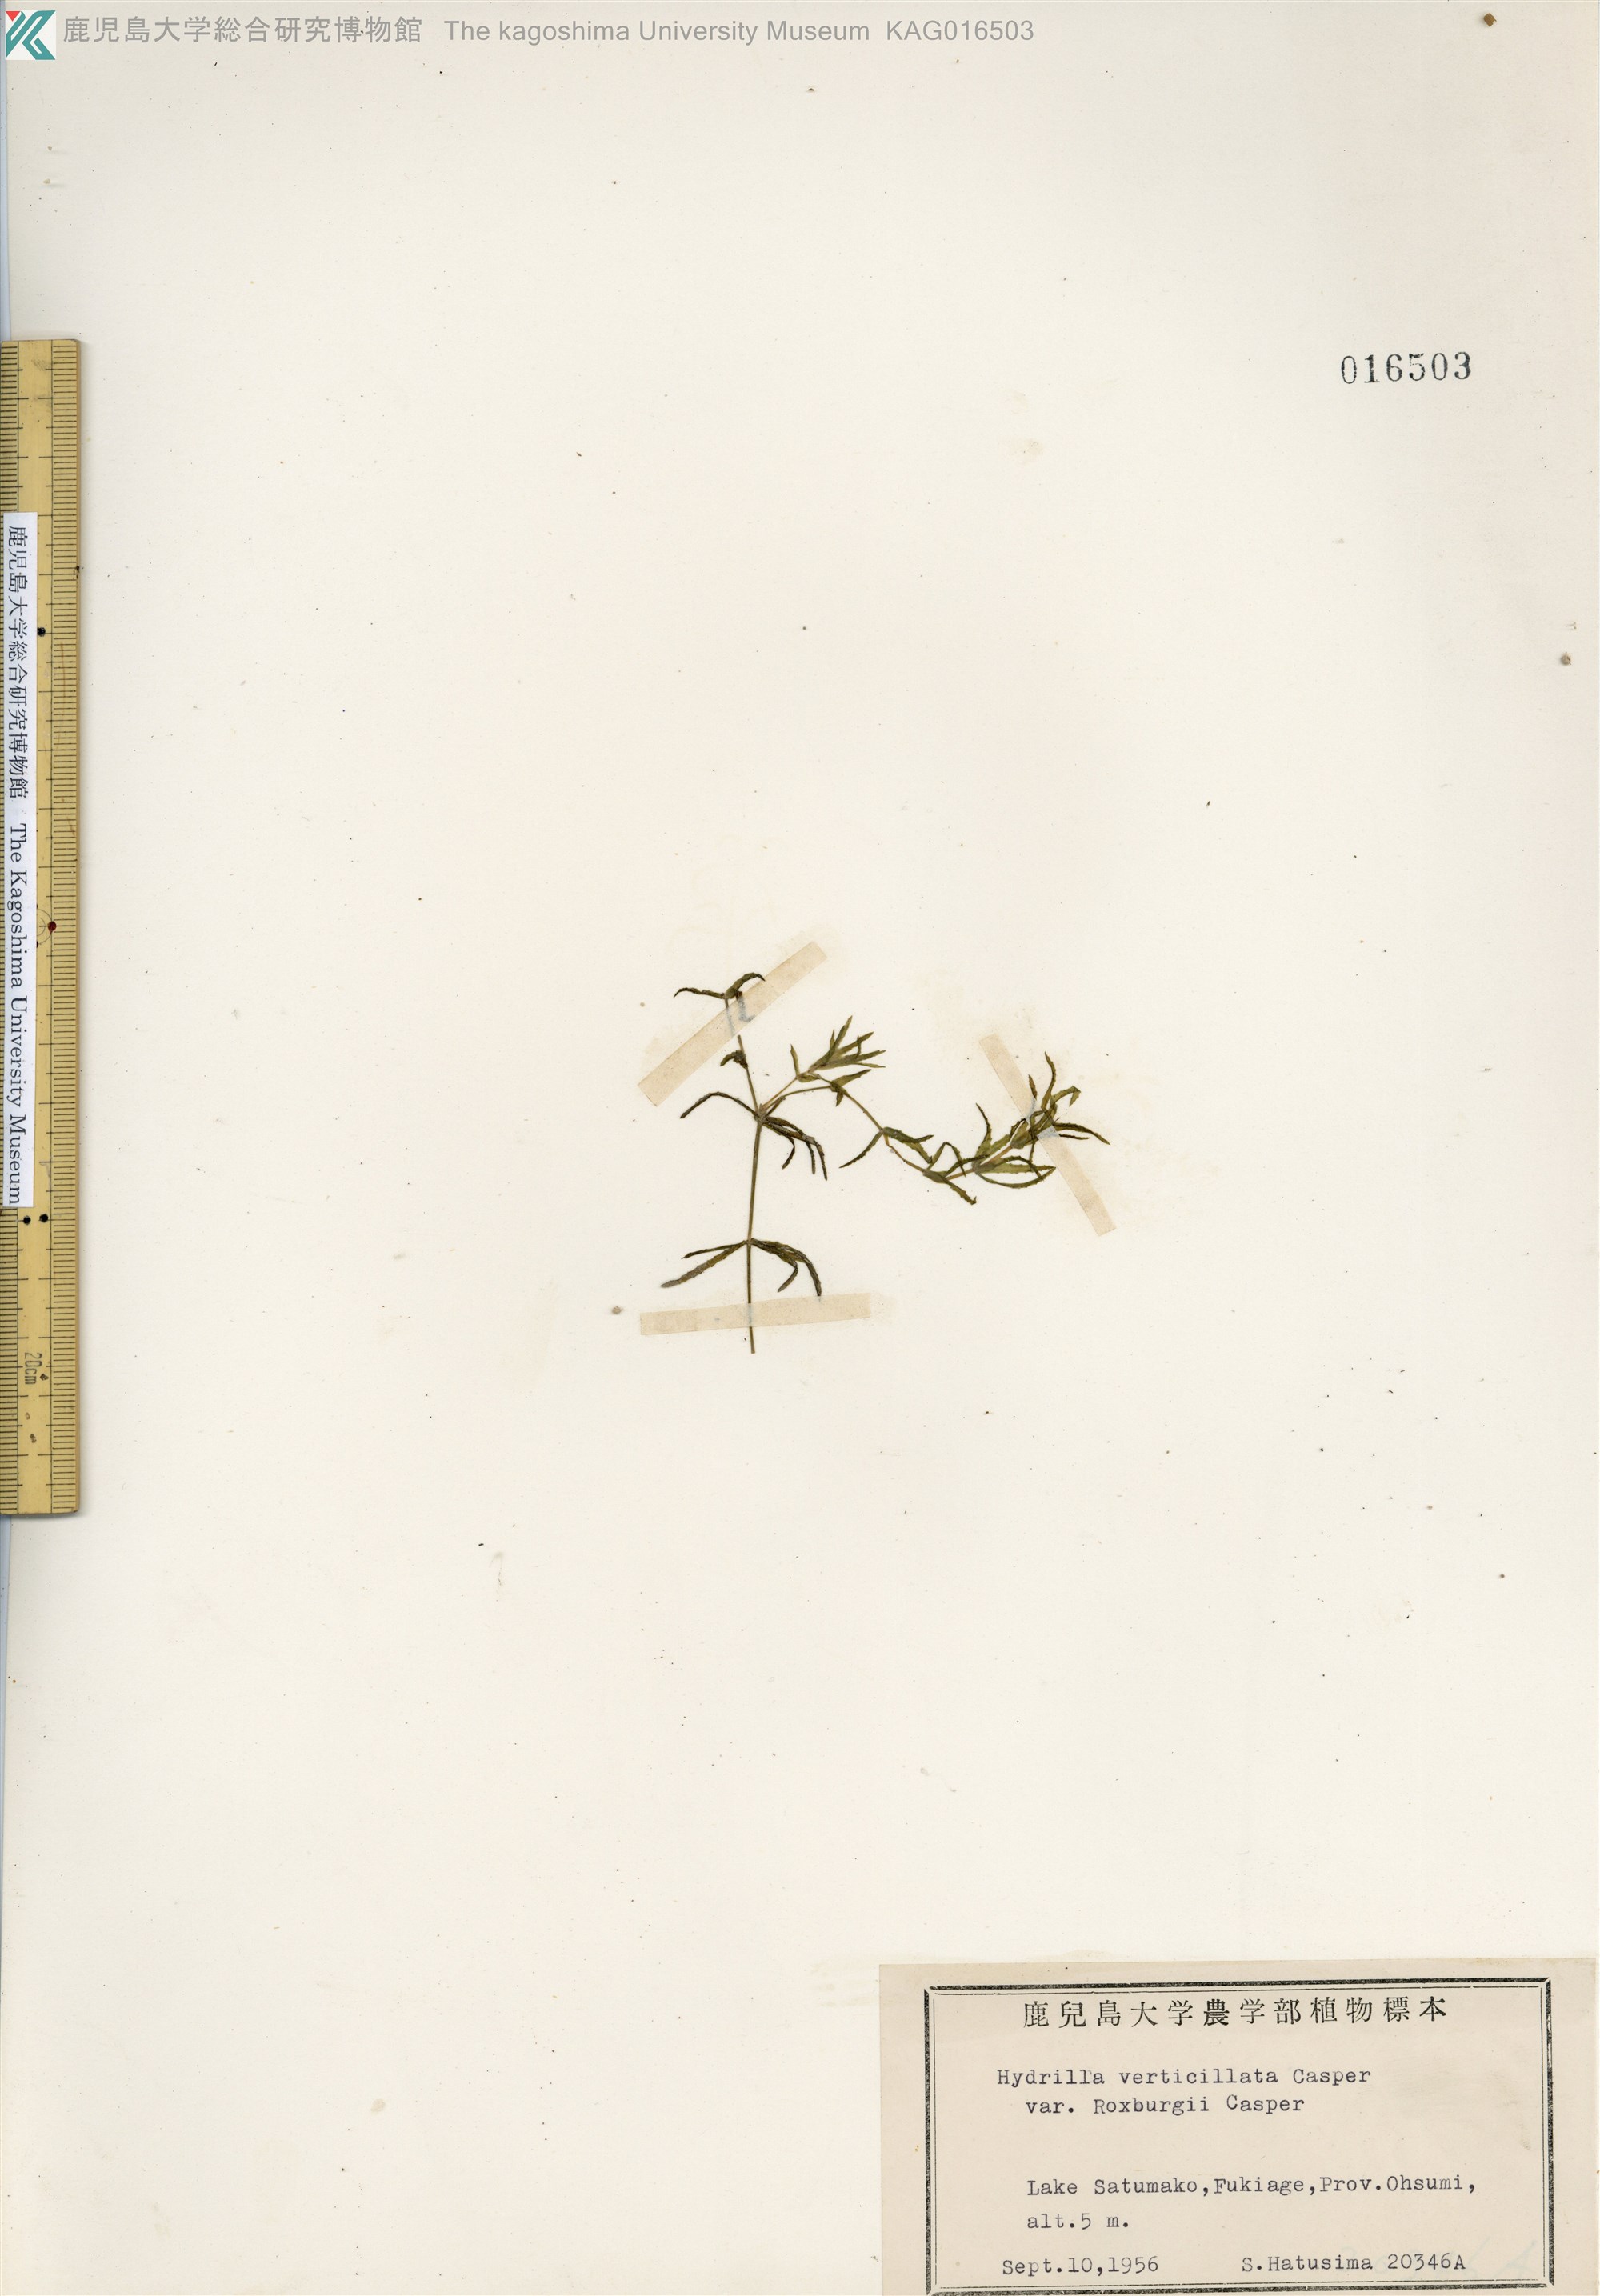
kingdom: Plantae
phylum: Tracheophyta
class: Liliopsida
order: Alismatales
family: Hydrocharitaceae
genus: Hydrilla
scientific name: Hydrilla verticillata
